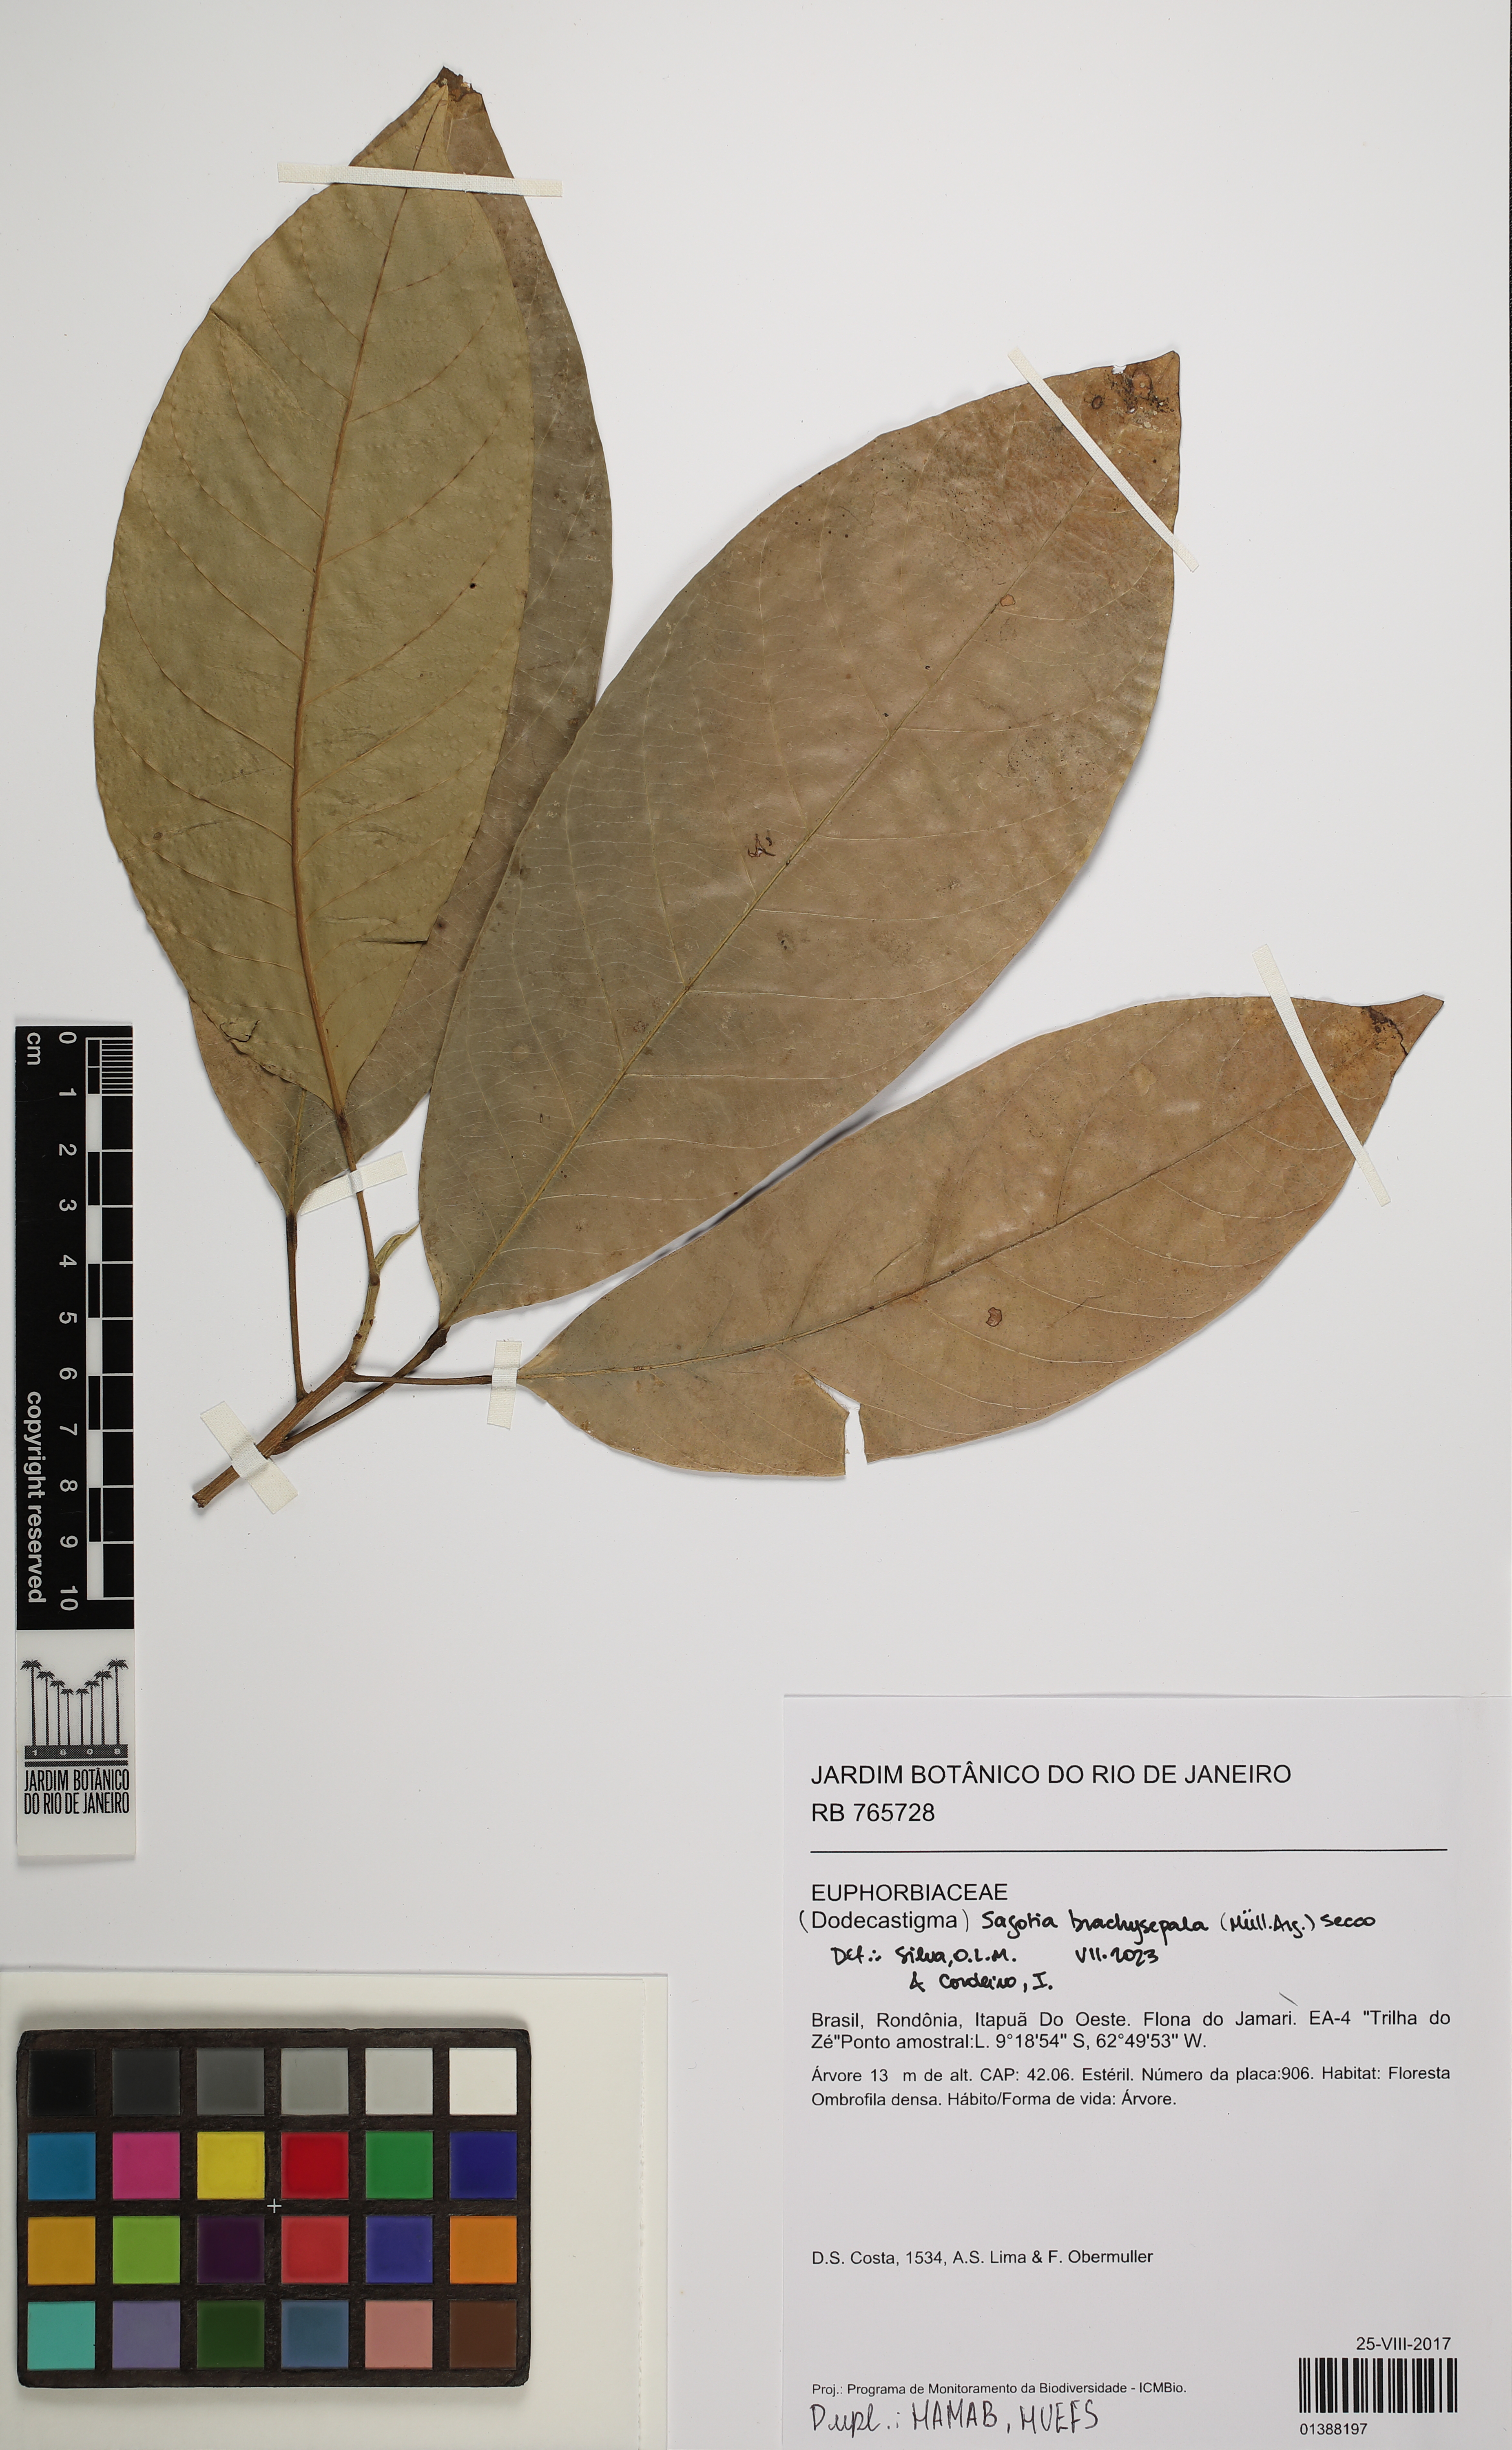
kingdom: Plantae
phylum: Tracheophyta
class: Magnoliopsida
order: Malpighiales
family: Euphorbiaceae
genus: Sagotia
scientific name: Sagotia brachysepala
